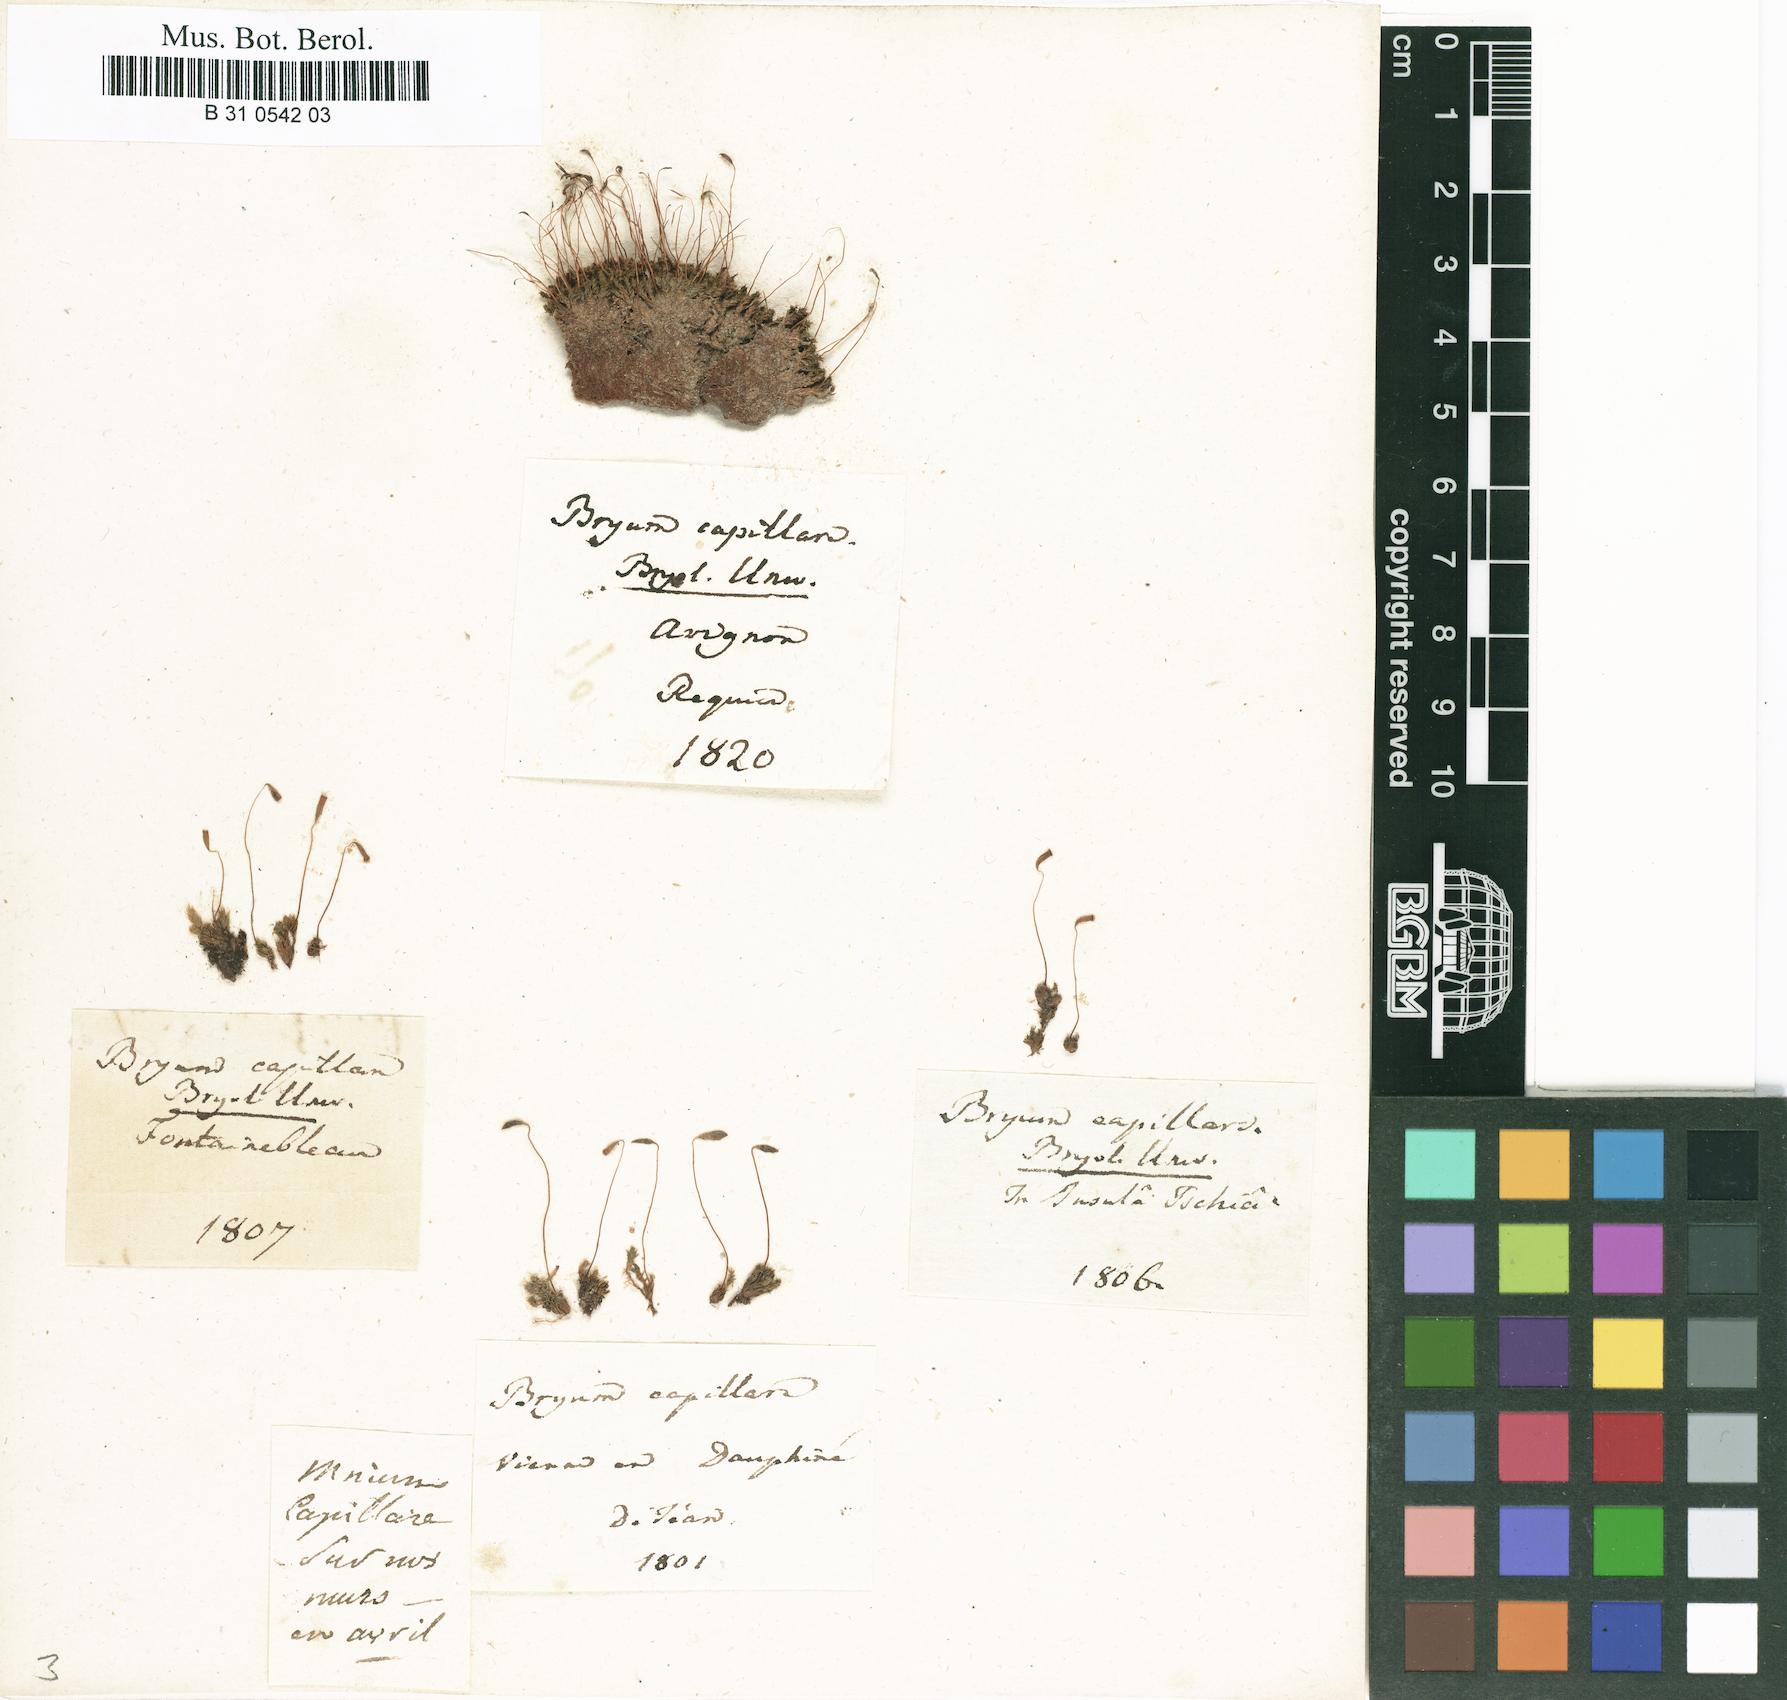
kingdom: Plantae
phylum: Bryophyta
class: Bryopsida
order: Bryales
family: Bryaceae
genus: Rosulabryum
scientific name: Rosulabryum capillare
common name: Capillary thread-moss
